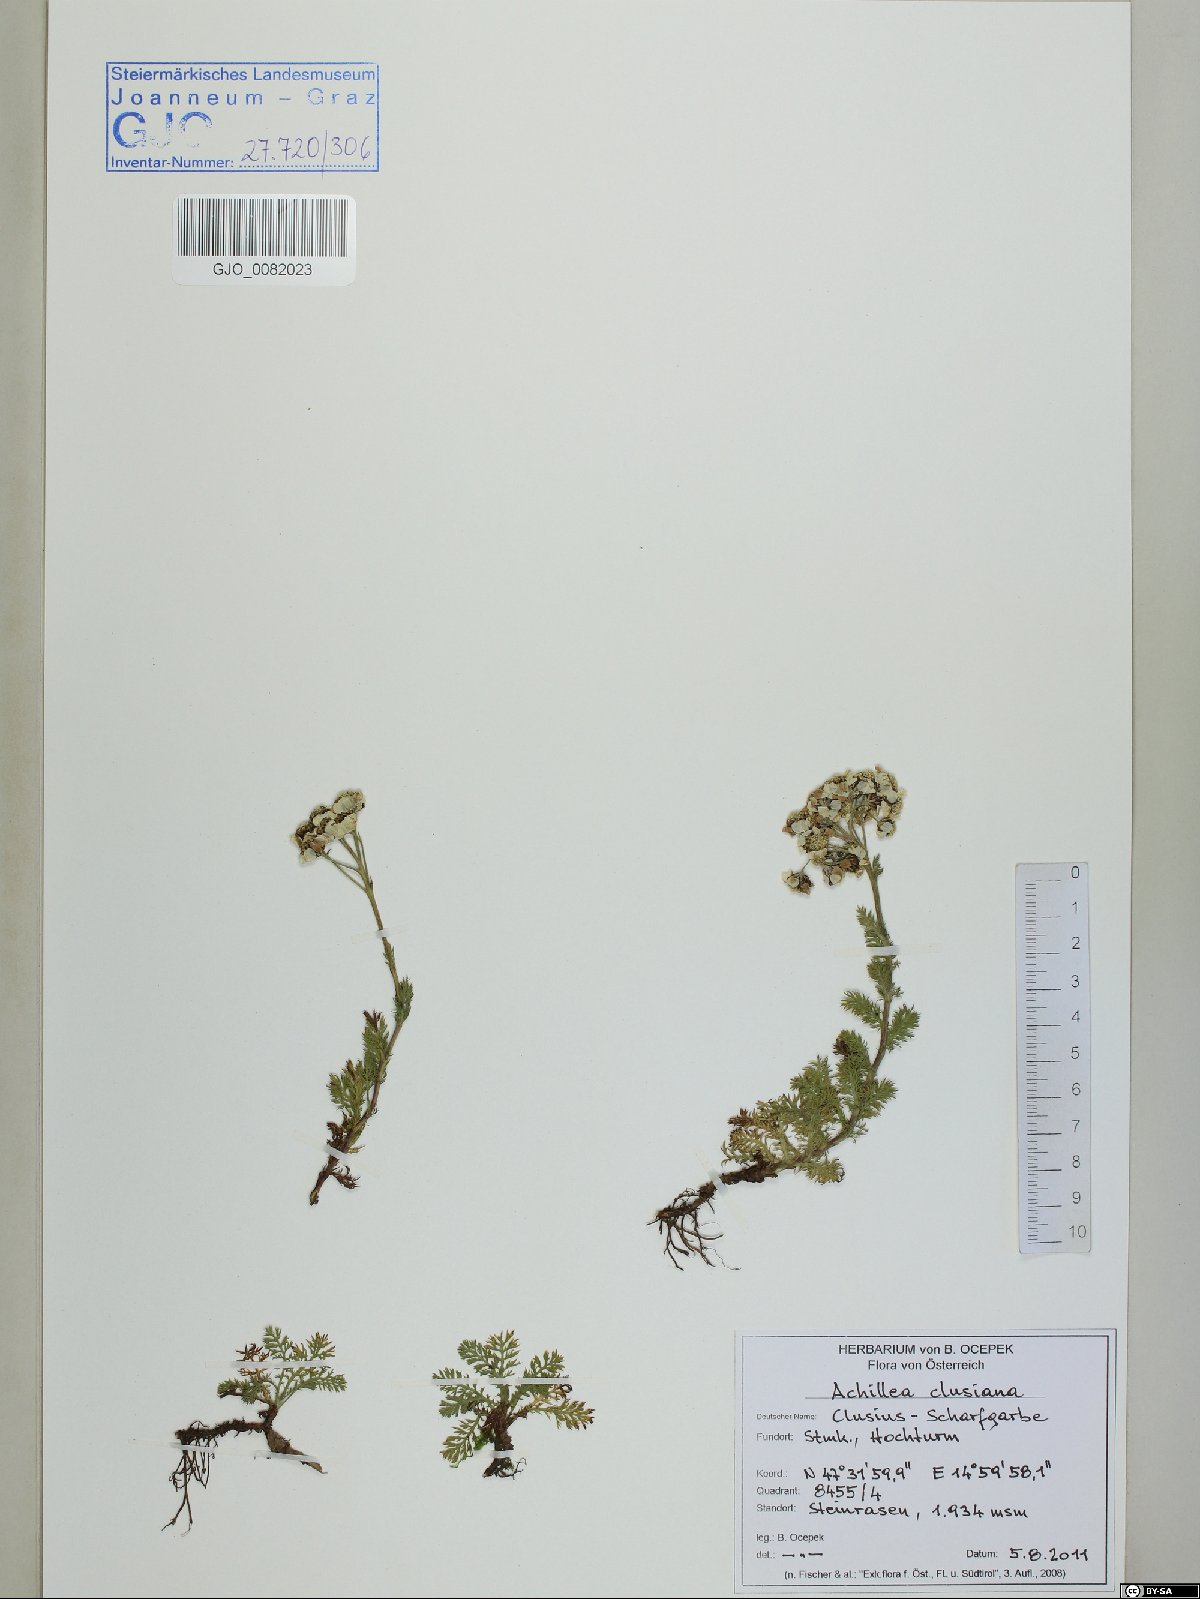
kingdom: Plantae
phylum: Tracheophyta
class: Magnoliopsida
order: Asterales
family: Asteraceae
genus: Achillea
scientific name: Achillea clusiana
